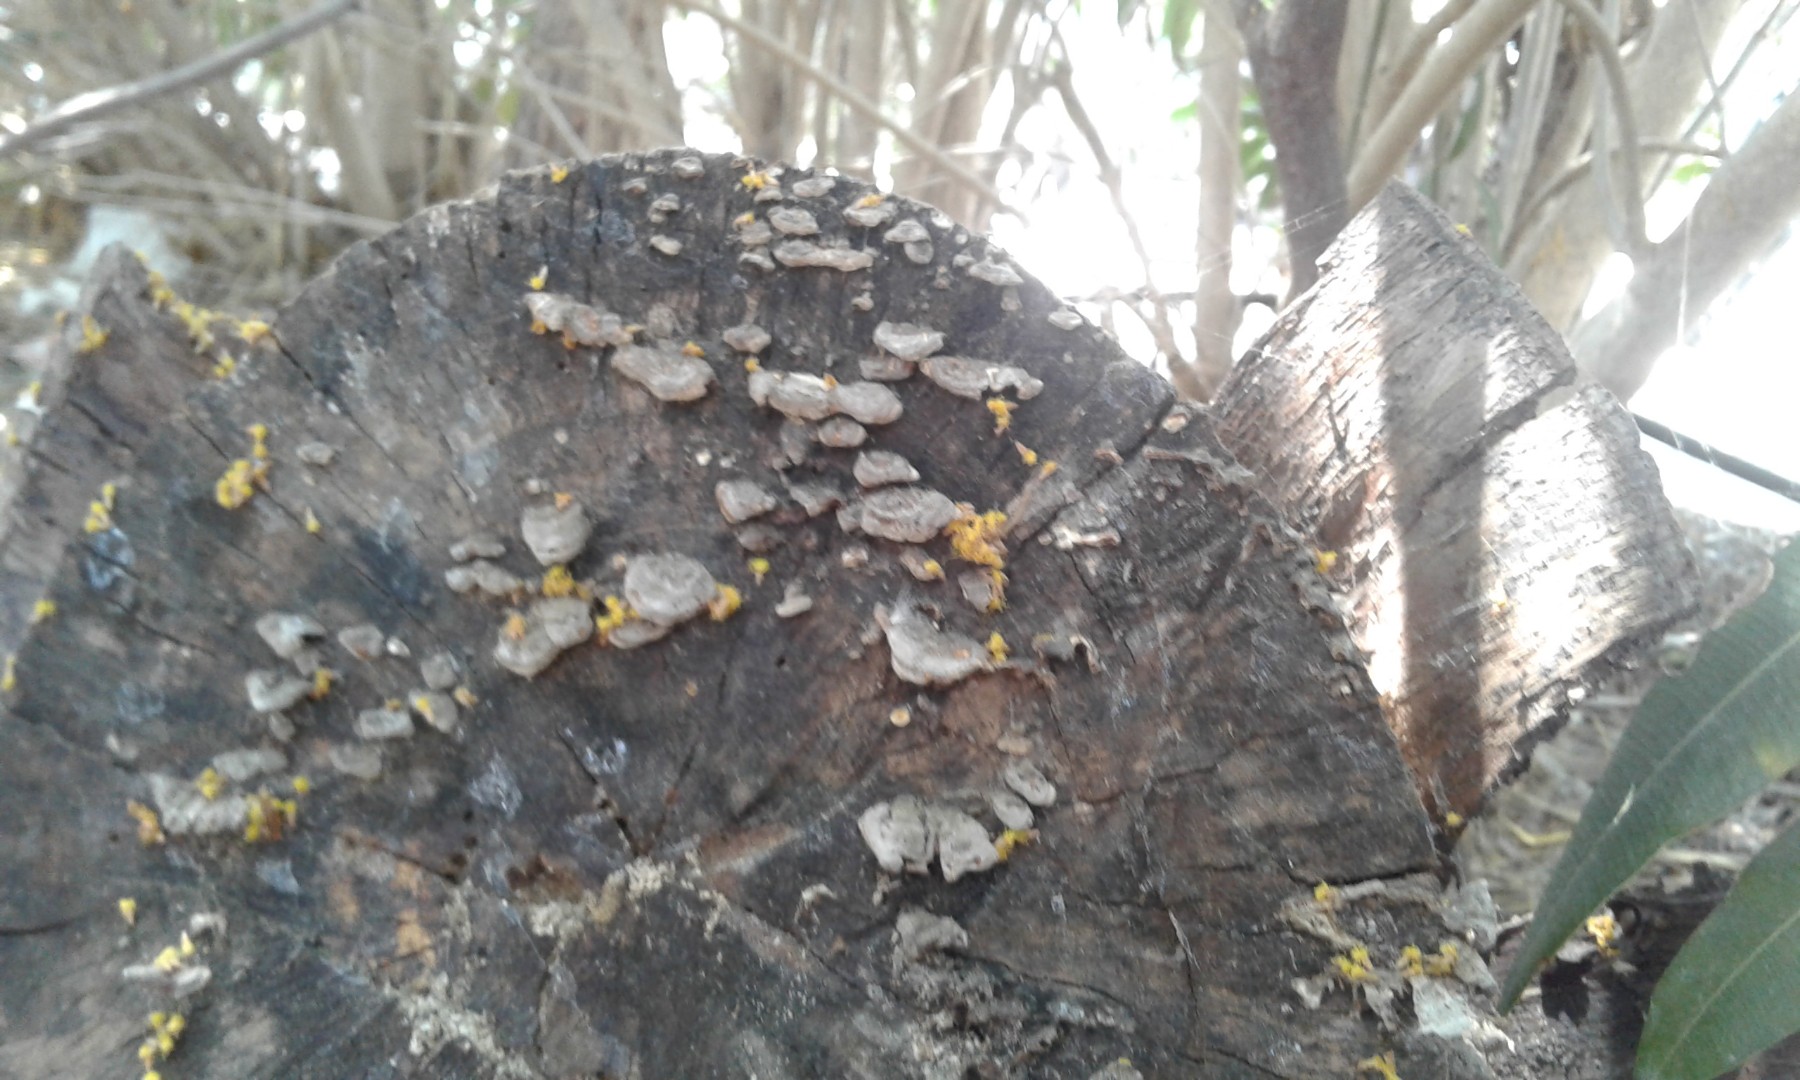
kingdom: Fungi
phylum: Basidiomycota
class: Agaricomycetes
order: Russulales
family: Stereaceae
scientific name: Stereaceae
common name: lædersvampfamilien
